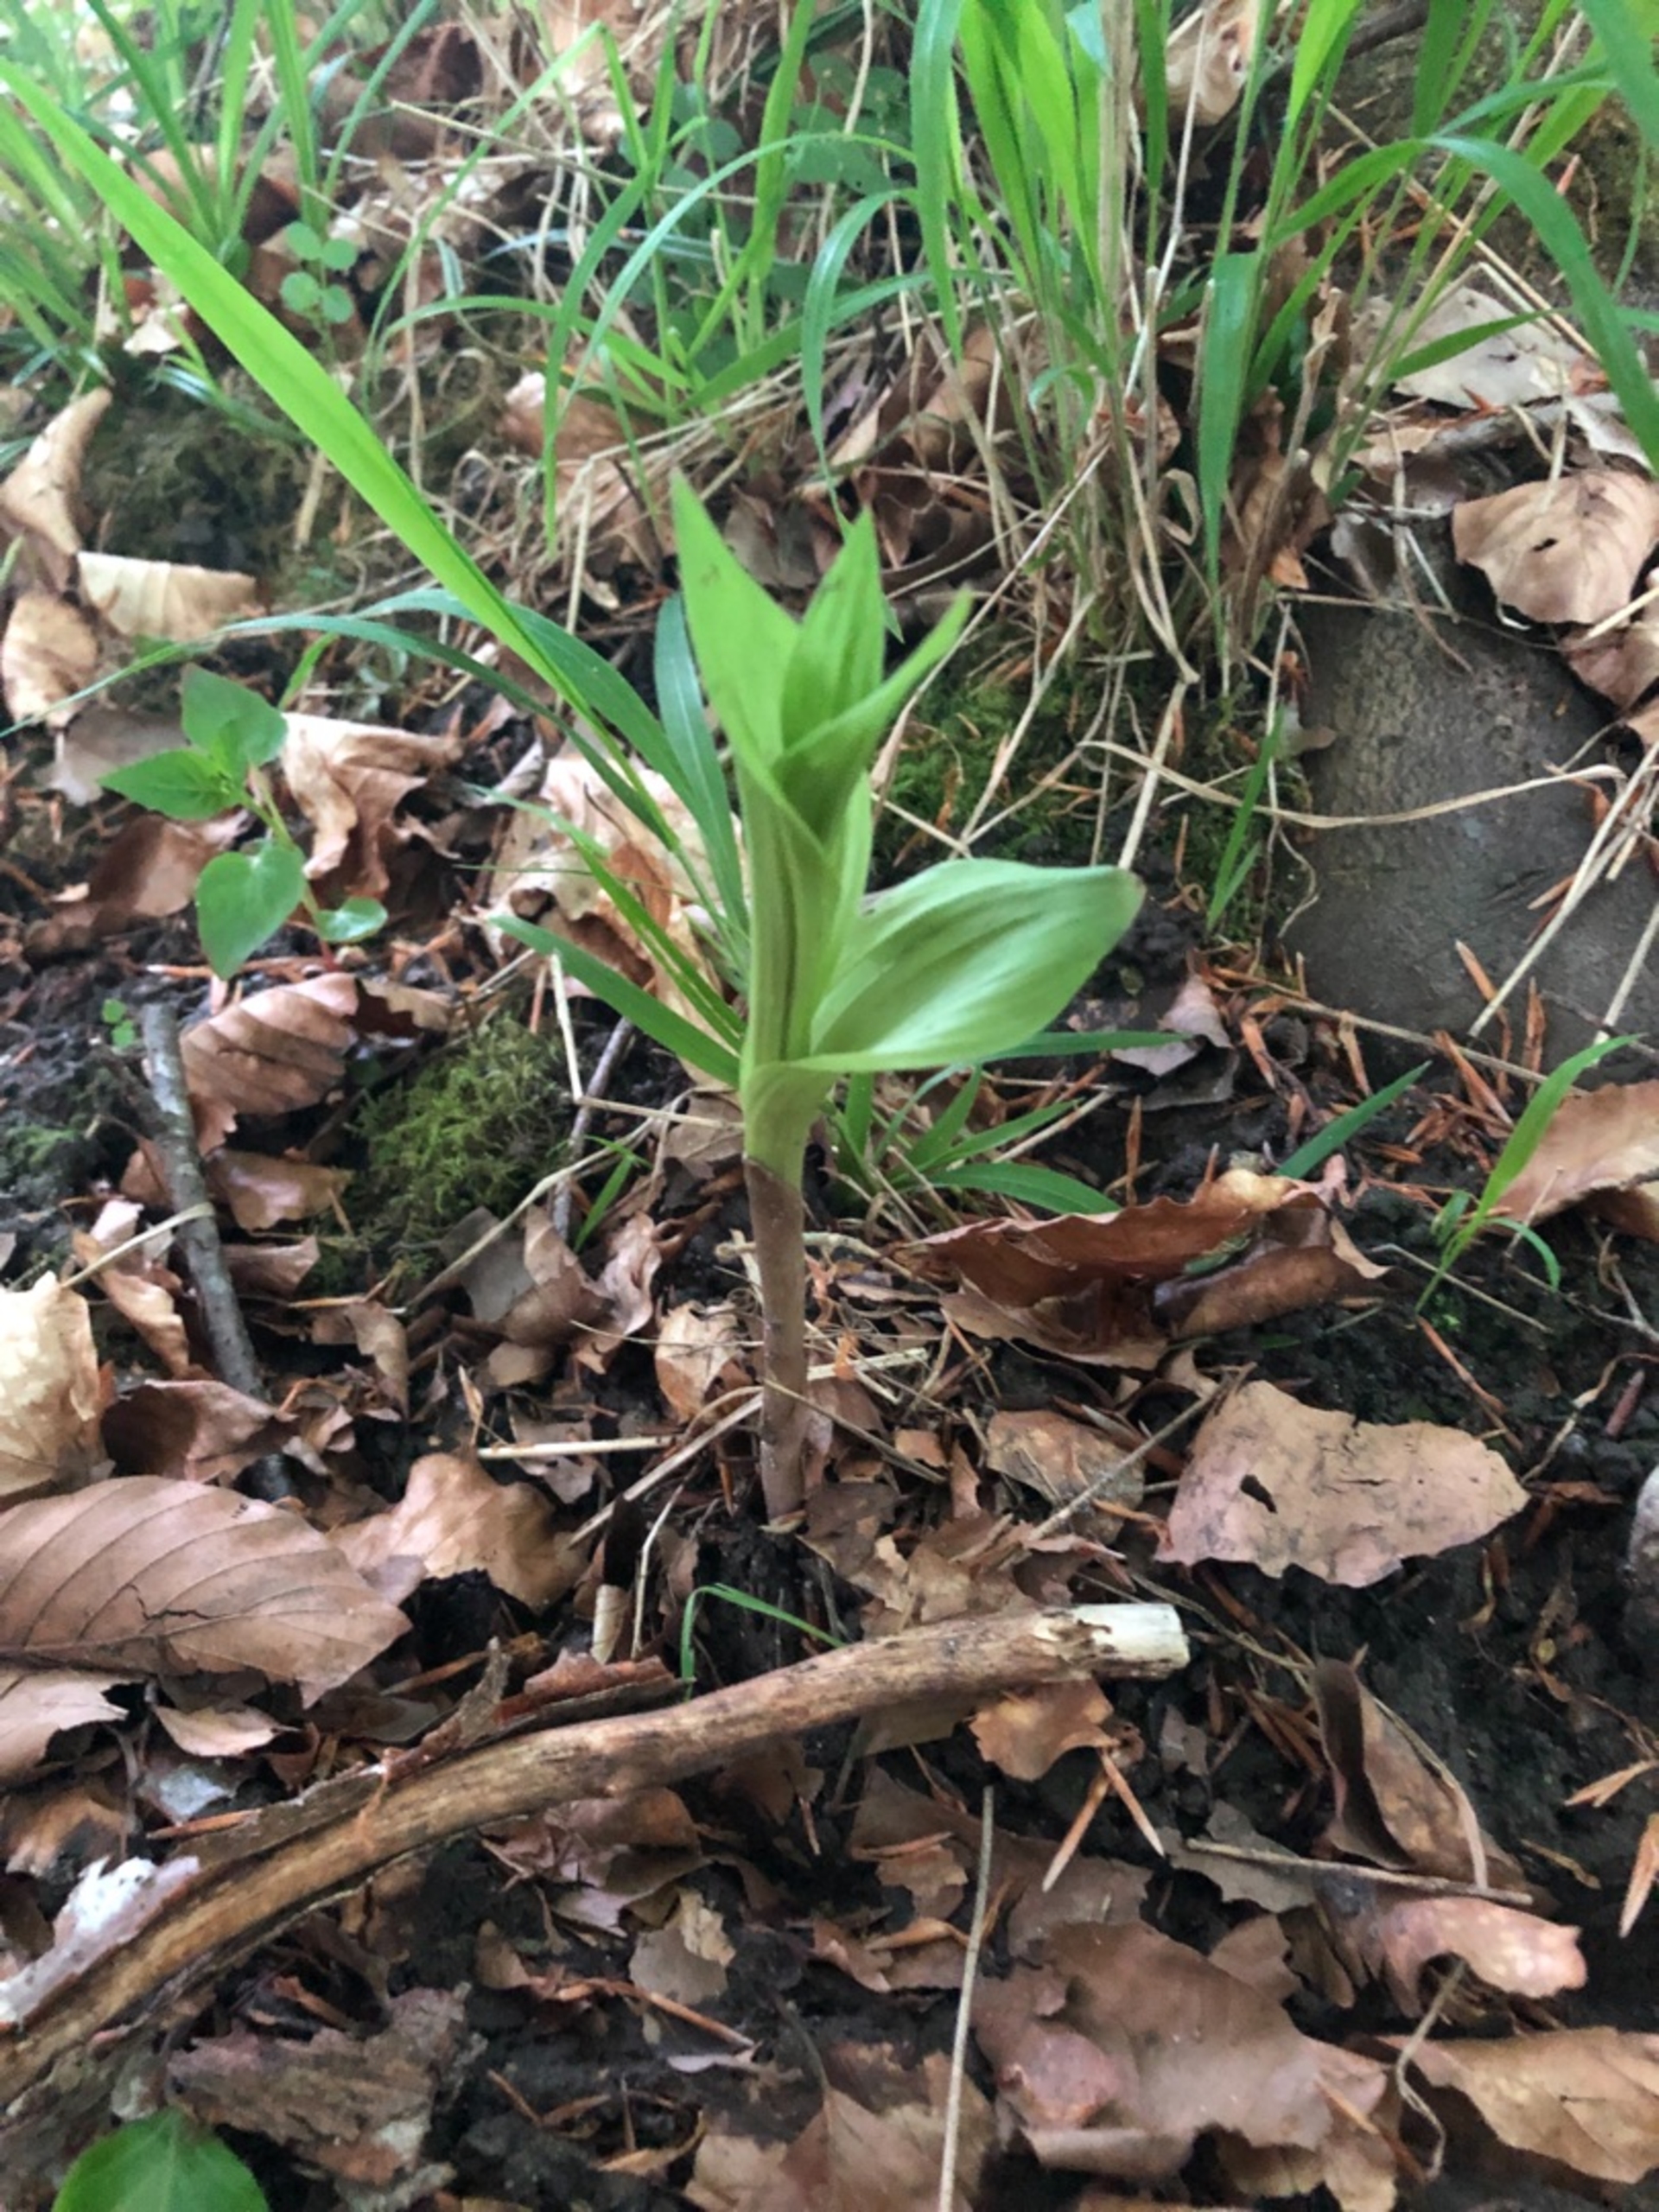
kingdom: Plantae
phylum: Tracheophyta
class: Liliopsida
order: Asparagales
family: Orchidaceae
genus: Epipactis
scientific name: Epipactis helleborine
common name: Skov-hullæbe
